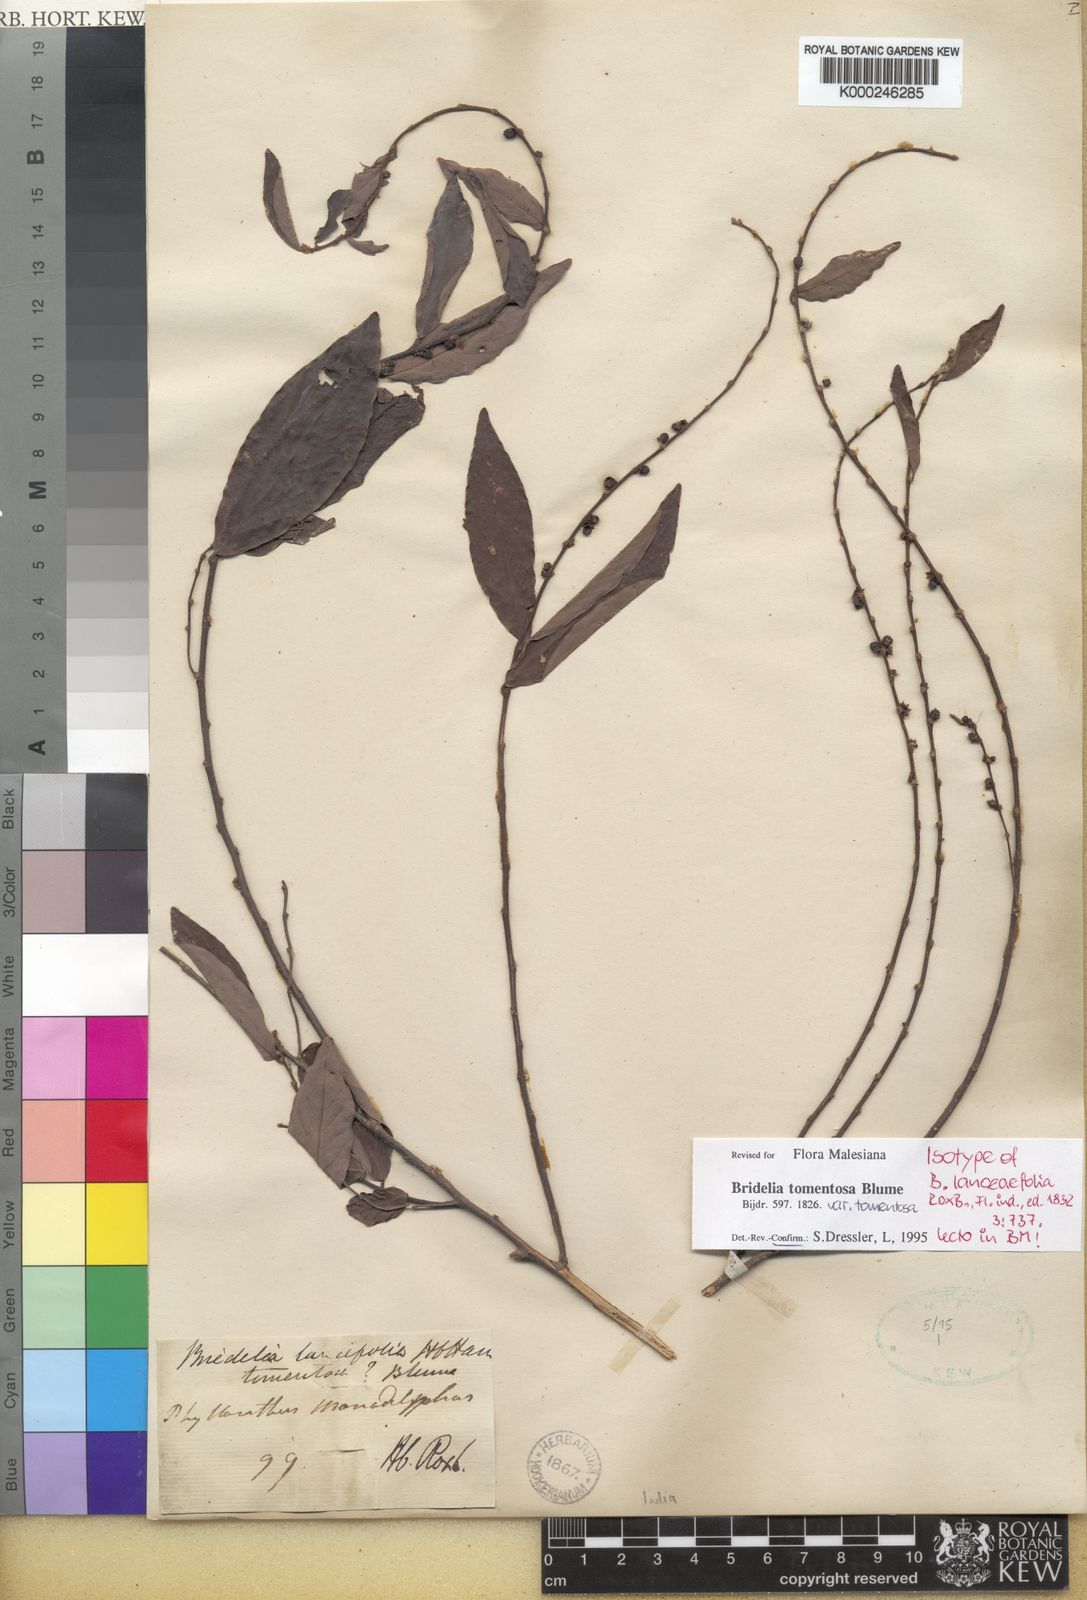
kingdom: Plantae
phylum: Tracheophyta
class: Magnoliopsida
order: Malpighiales
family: Phyllanthaceae
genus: Bridelia
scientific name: Bridelia tomentosa
